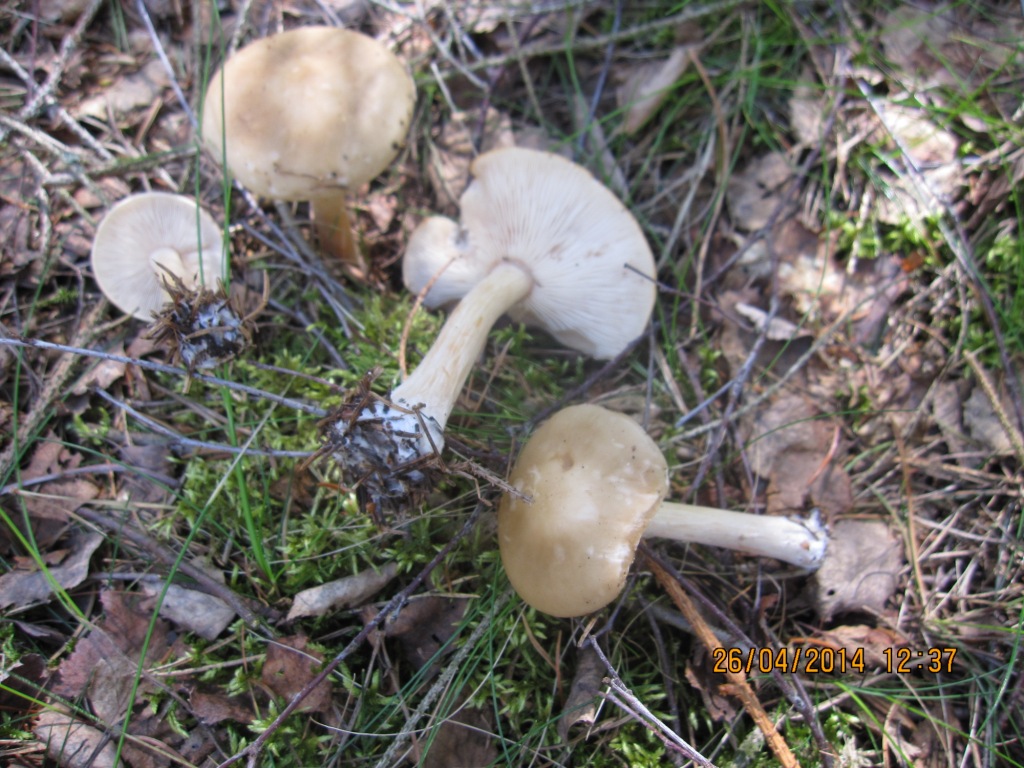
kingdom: Fungi
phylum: Basidiomycota
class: Agaricomycetes
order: Agaricales
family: Tricholomataceae
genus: Melanoleuca
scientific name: Melanoleuca cognata
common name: gyldengrå munkehat
